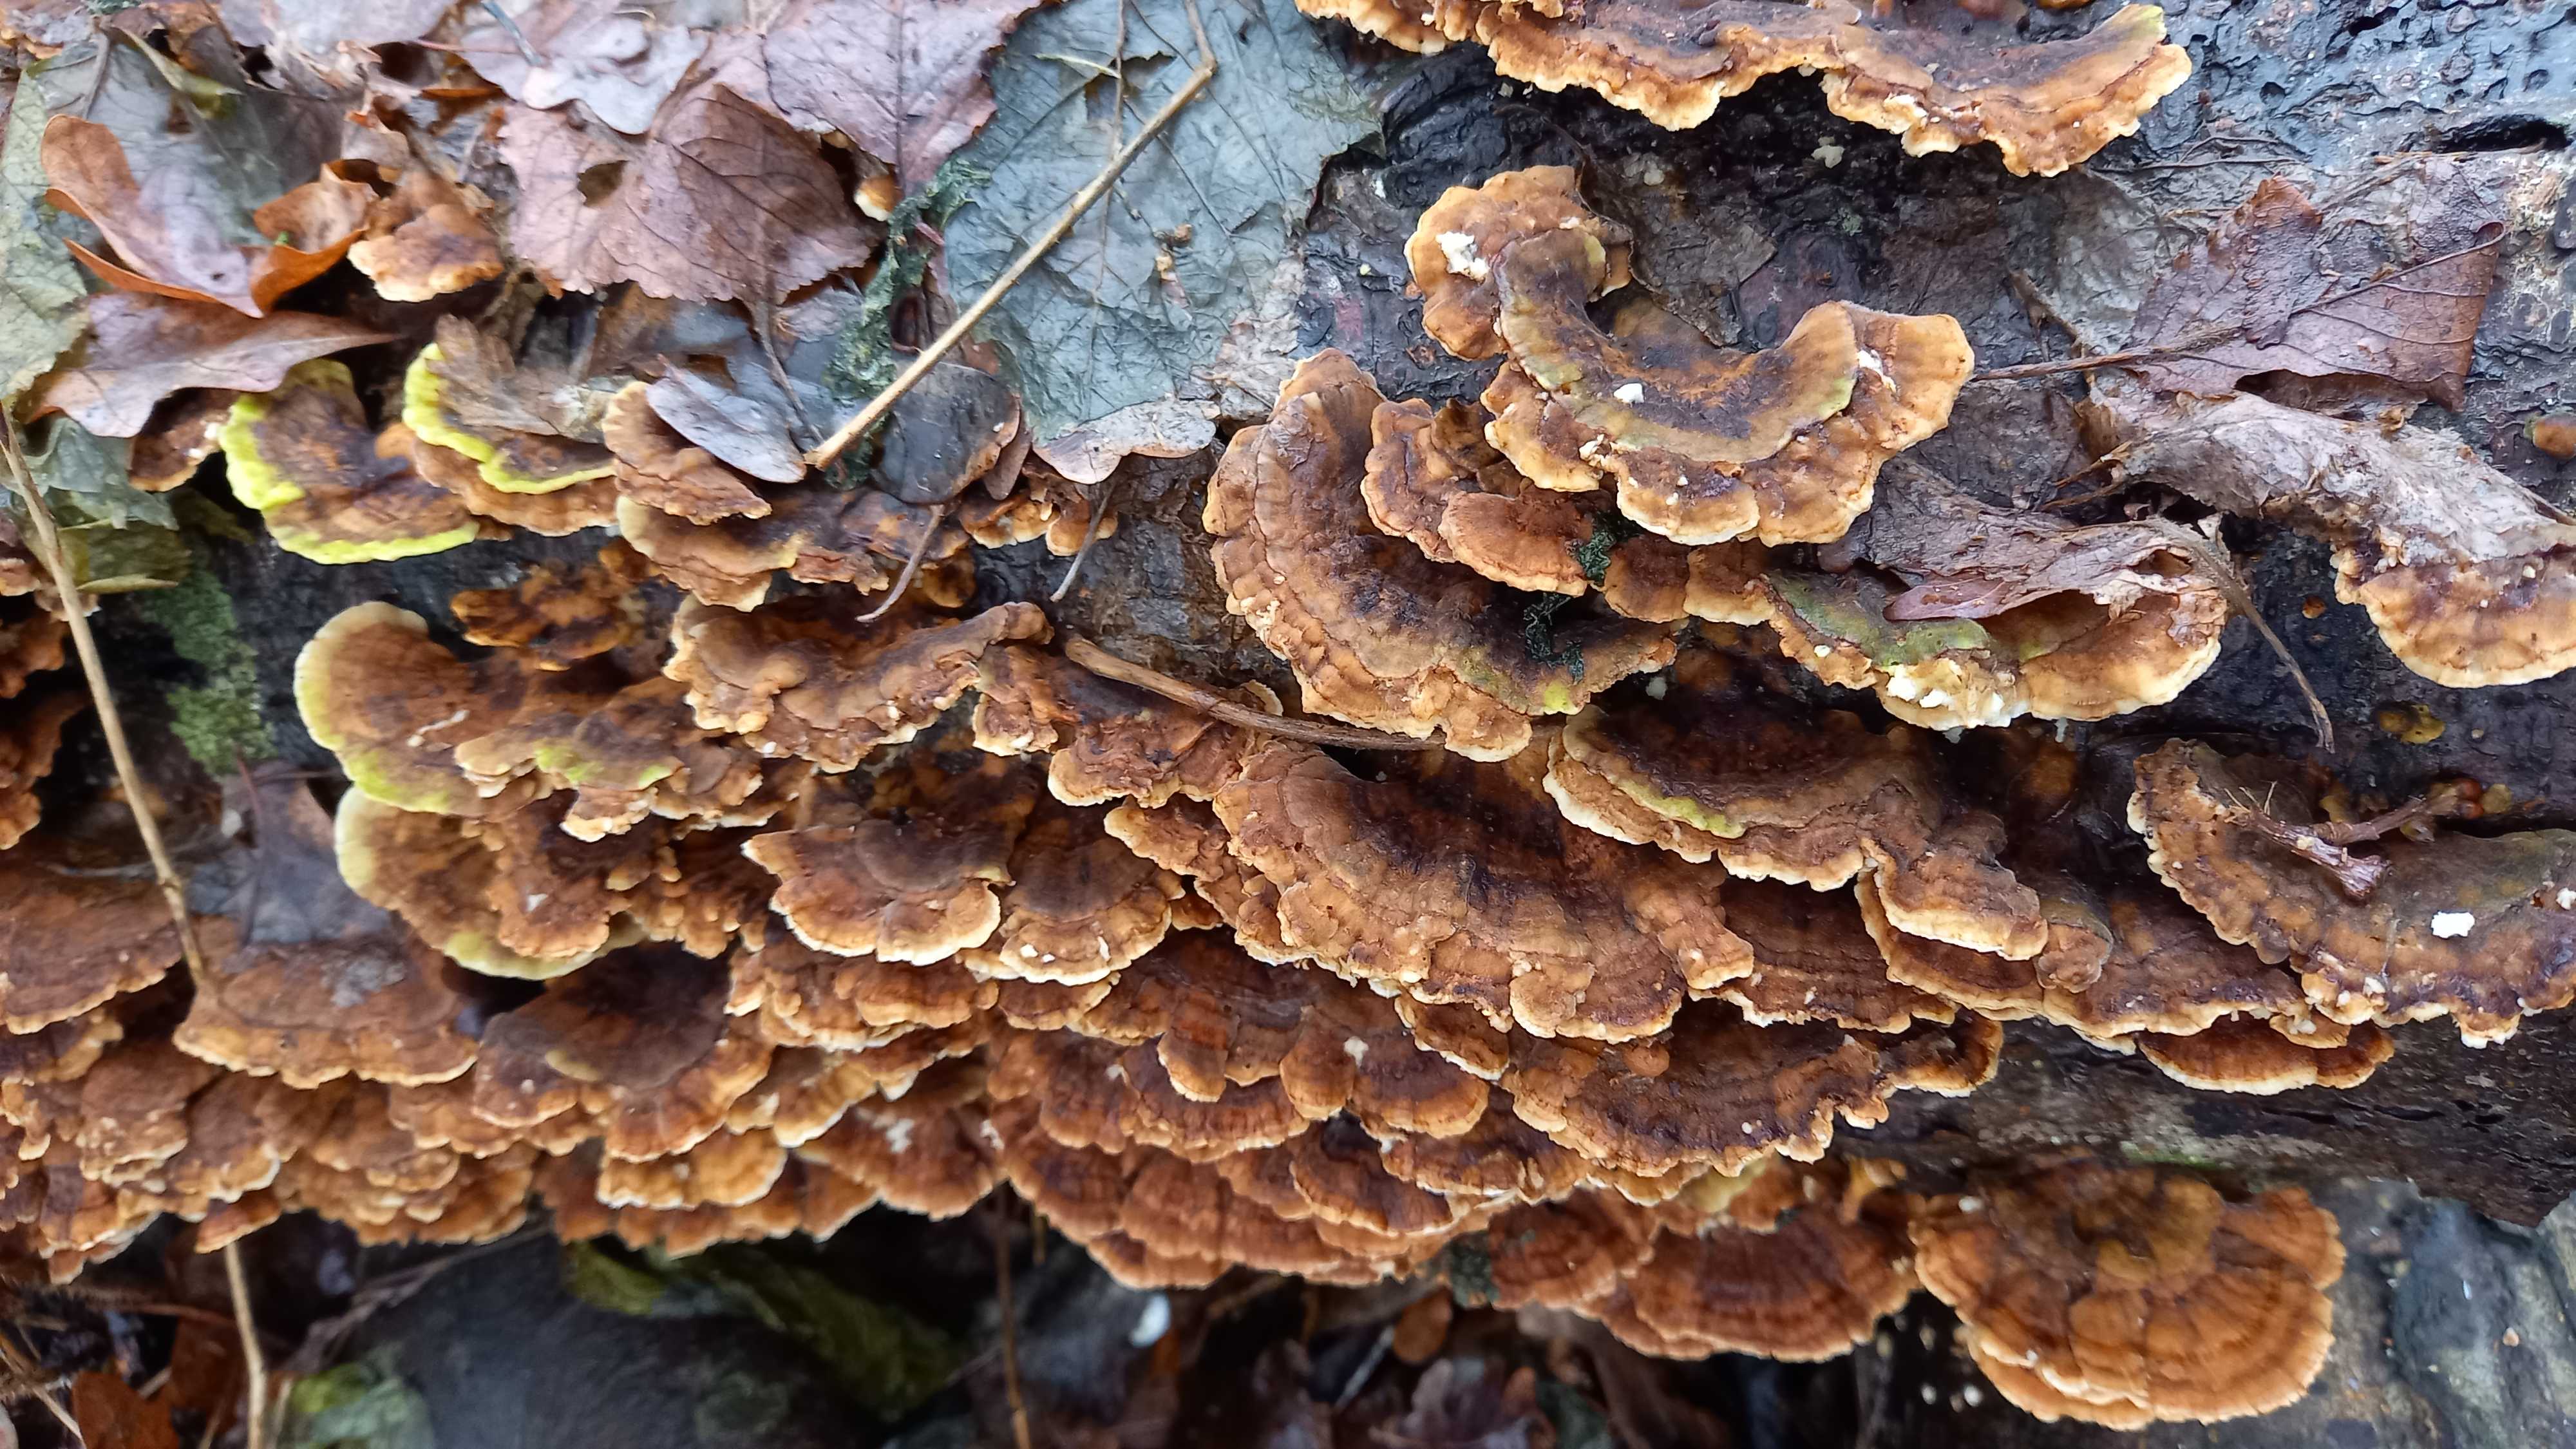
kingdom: Fungi
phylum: Basidiomycota
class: Agaricomycetes
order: Polyporales
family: Polyporaceae
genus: Trametes
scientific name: Trametes versicolor
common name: broget læderporesvamp
